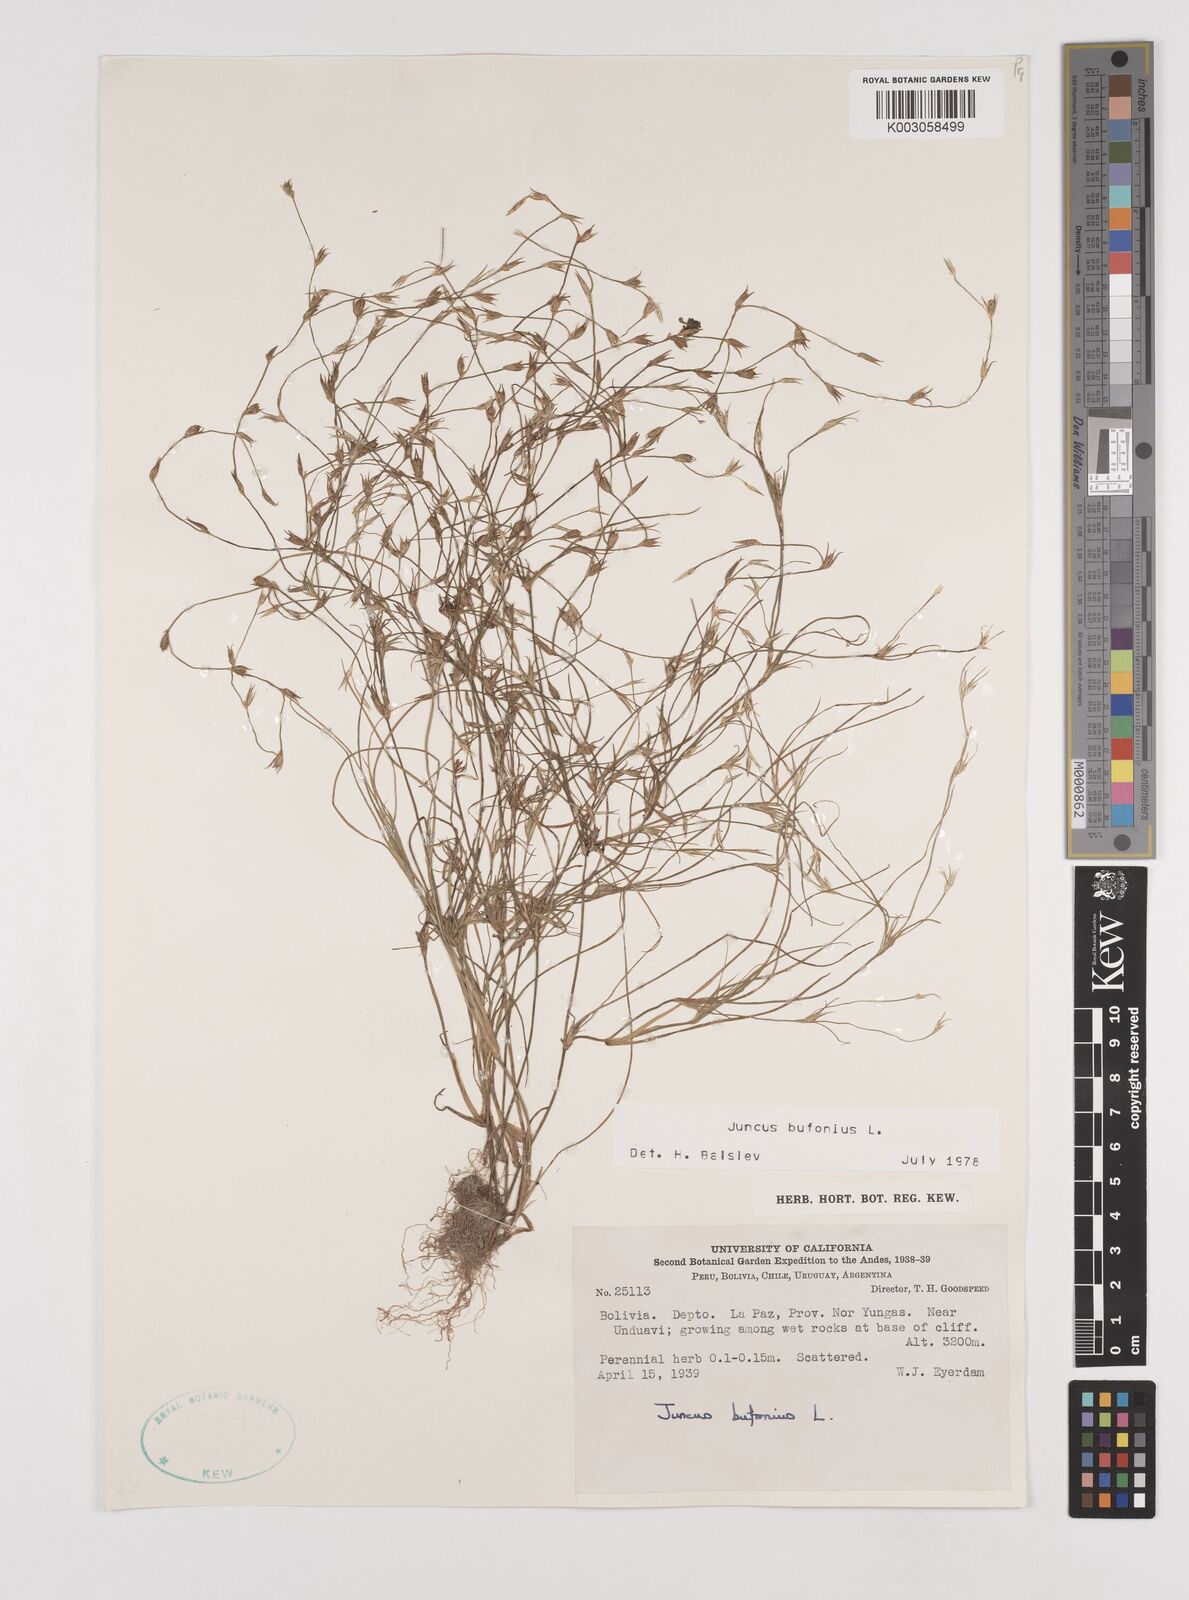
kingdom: Plantae
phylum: Tracheophyta
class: Liliopsida
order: Poales
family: Juncaceae
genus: Juncus
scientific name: Juncus bufonius
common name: Toad rush
